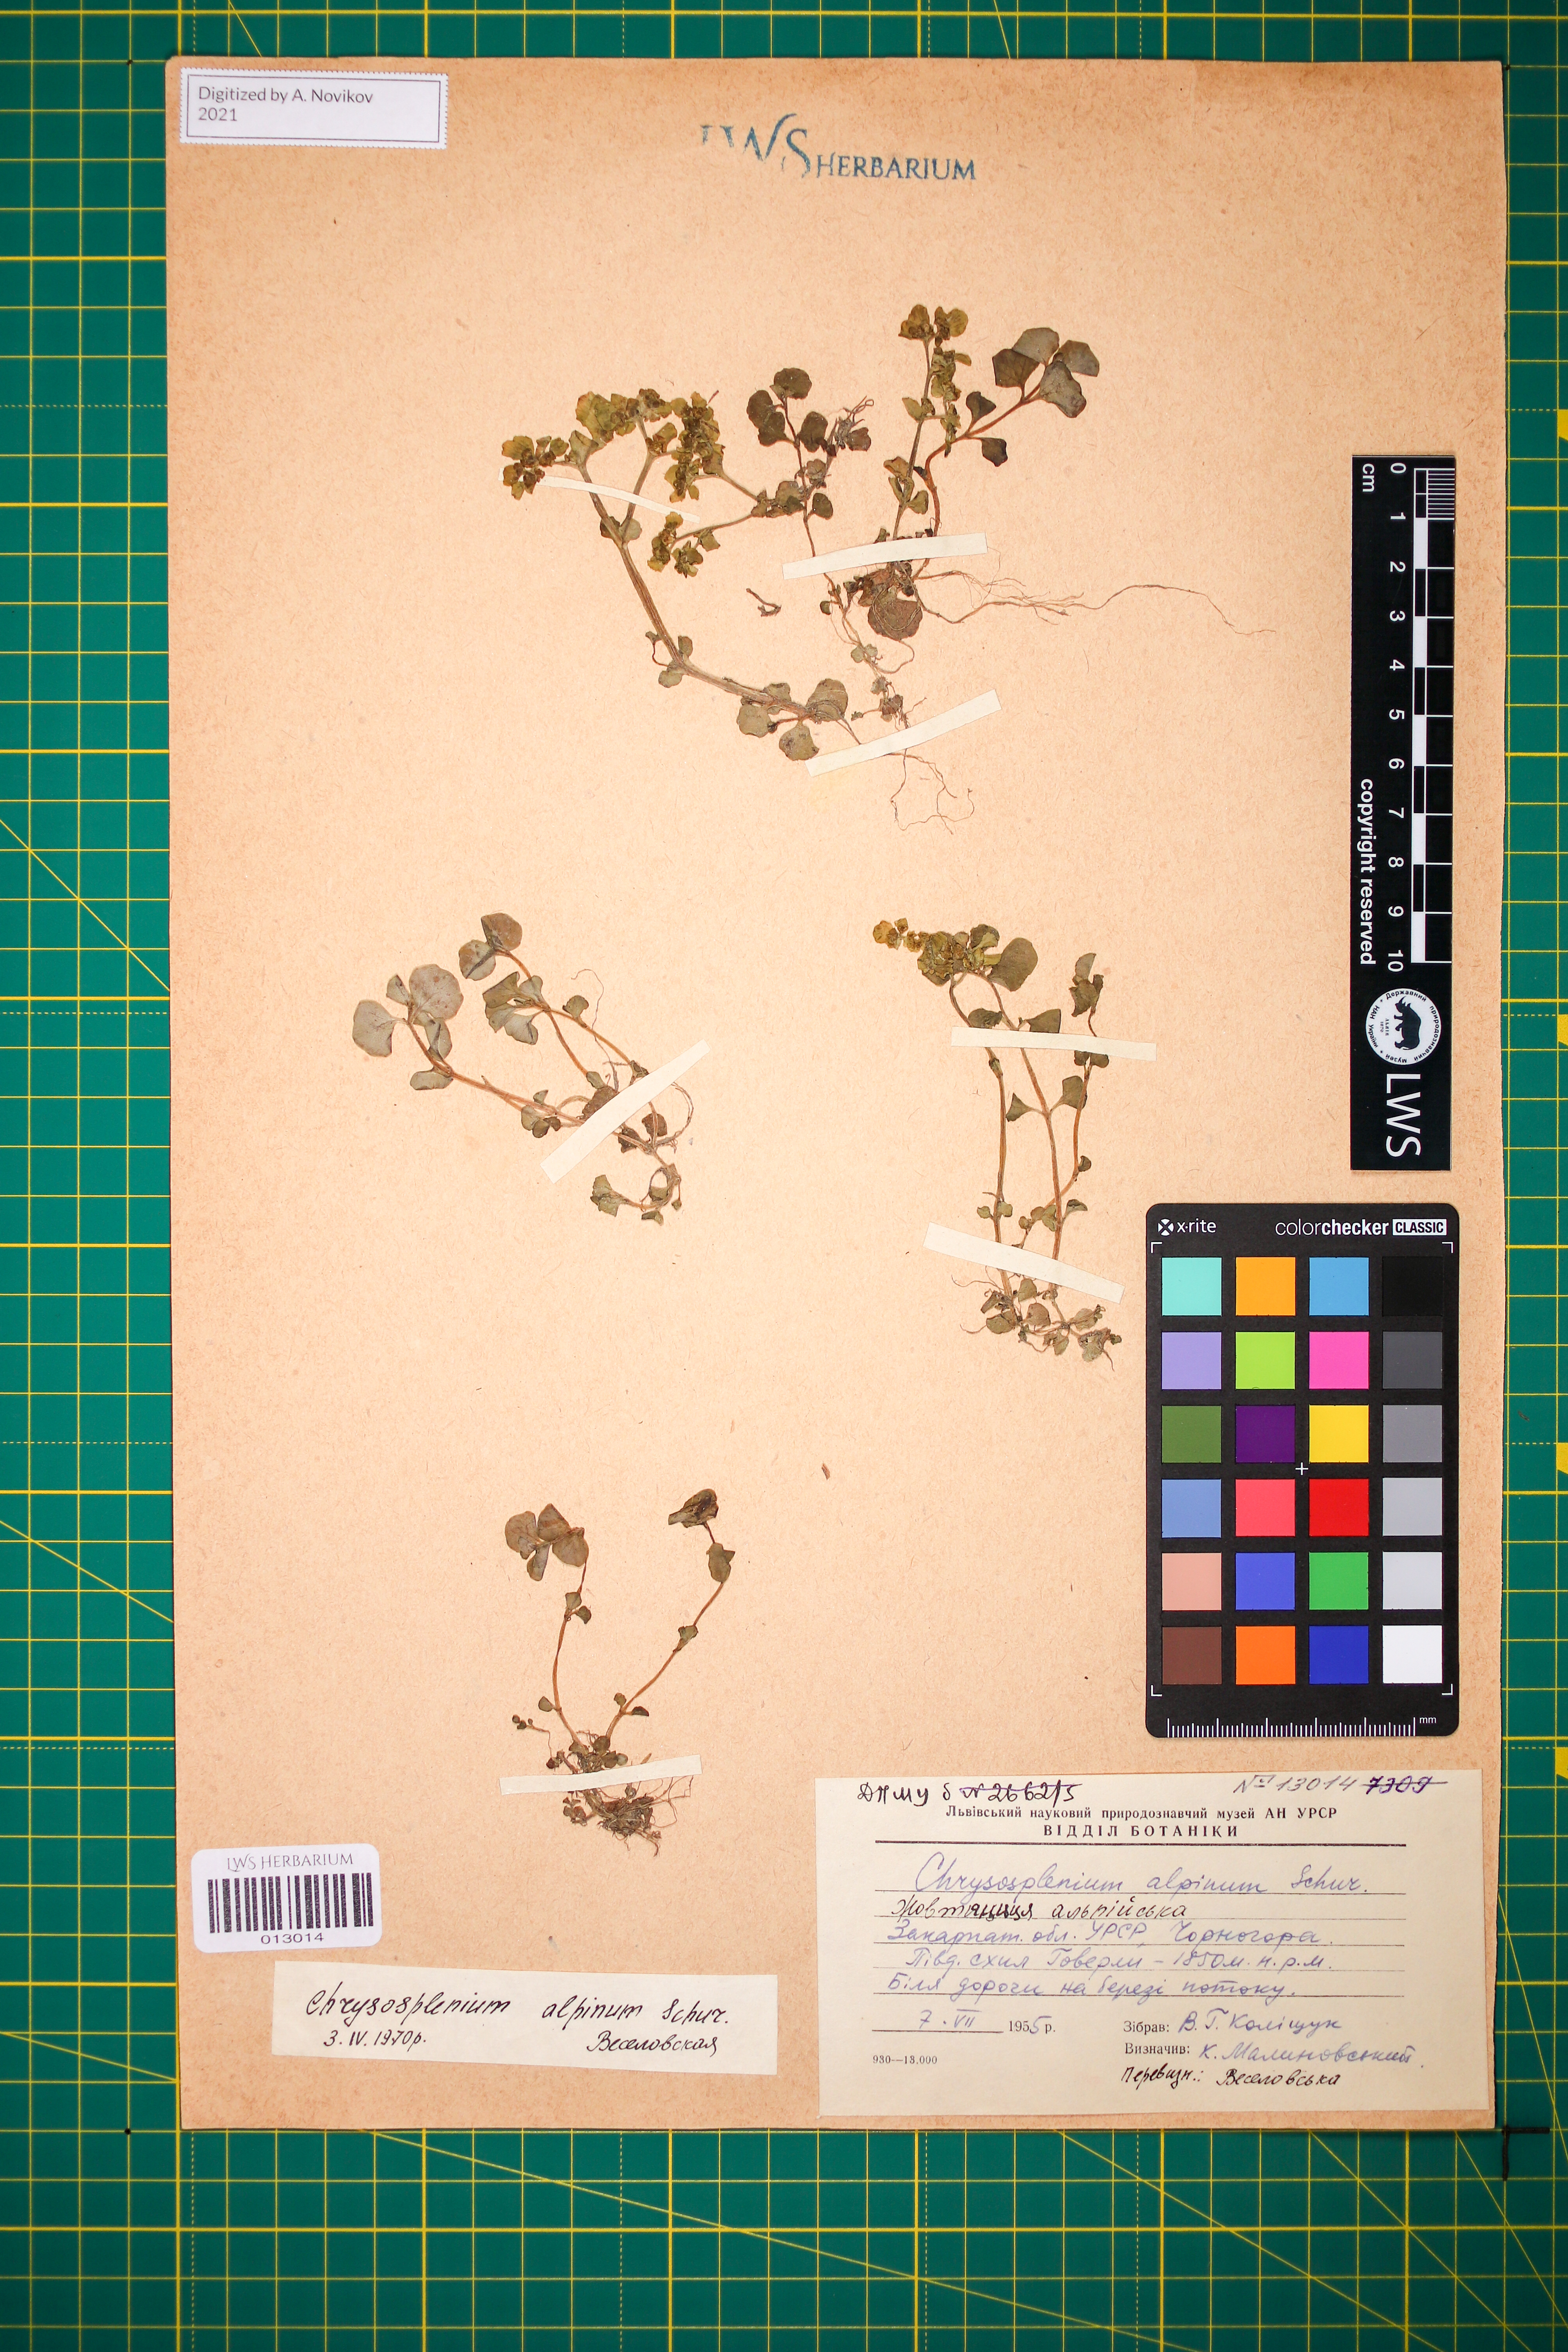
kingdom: Plantae
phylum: Tracheophyta
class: Magnoliopsida
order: Saxifragales
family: Saxifragaceae
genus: Chrysosplenium
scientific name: Chrysosplenium alpinum
